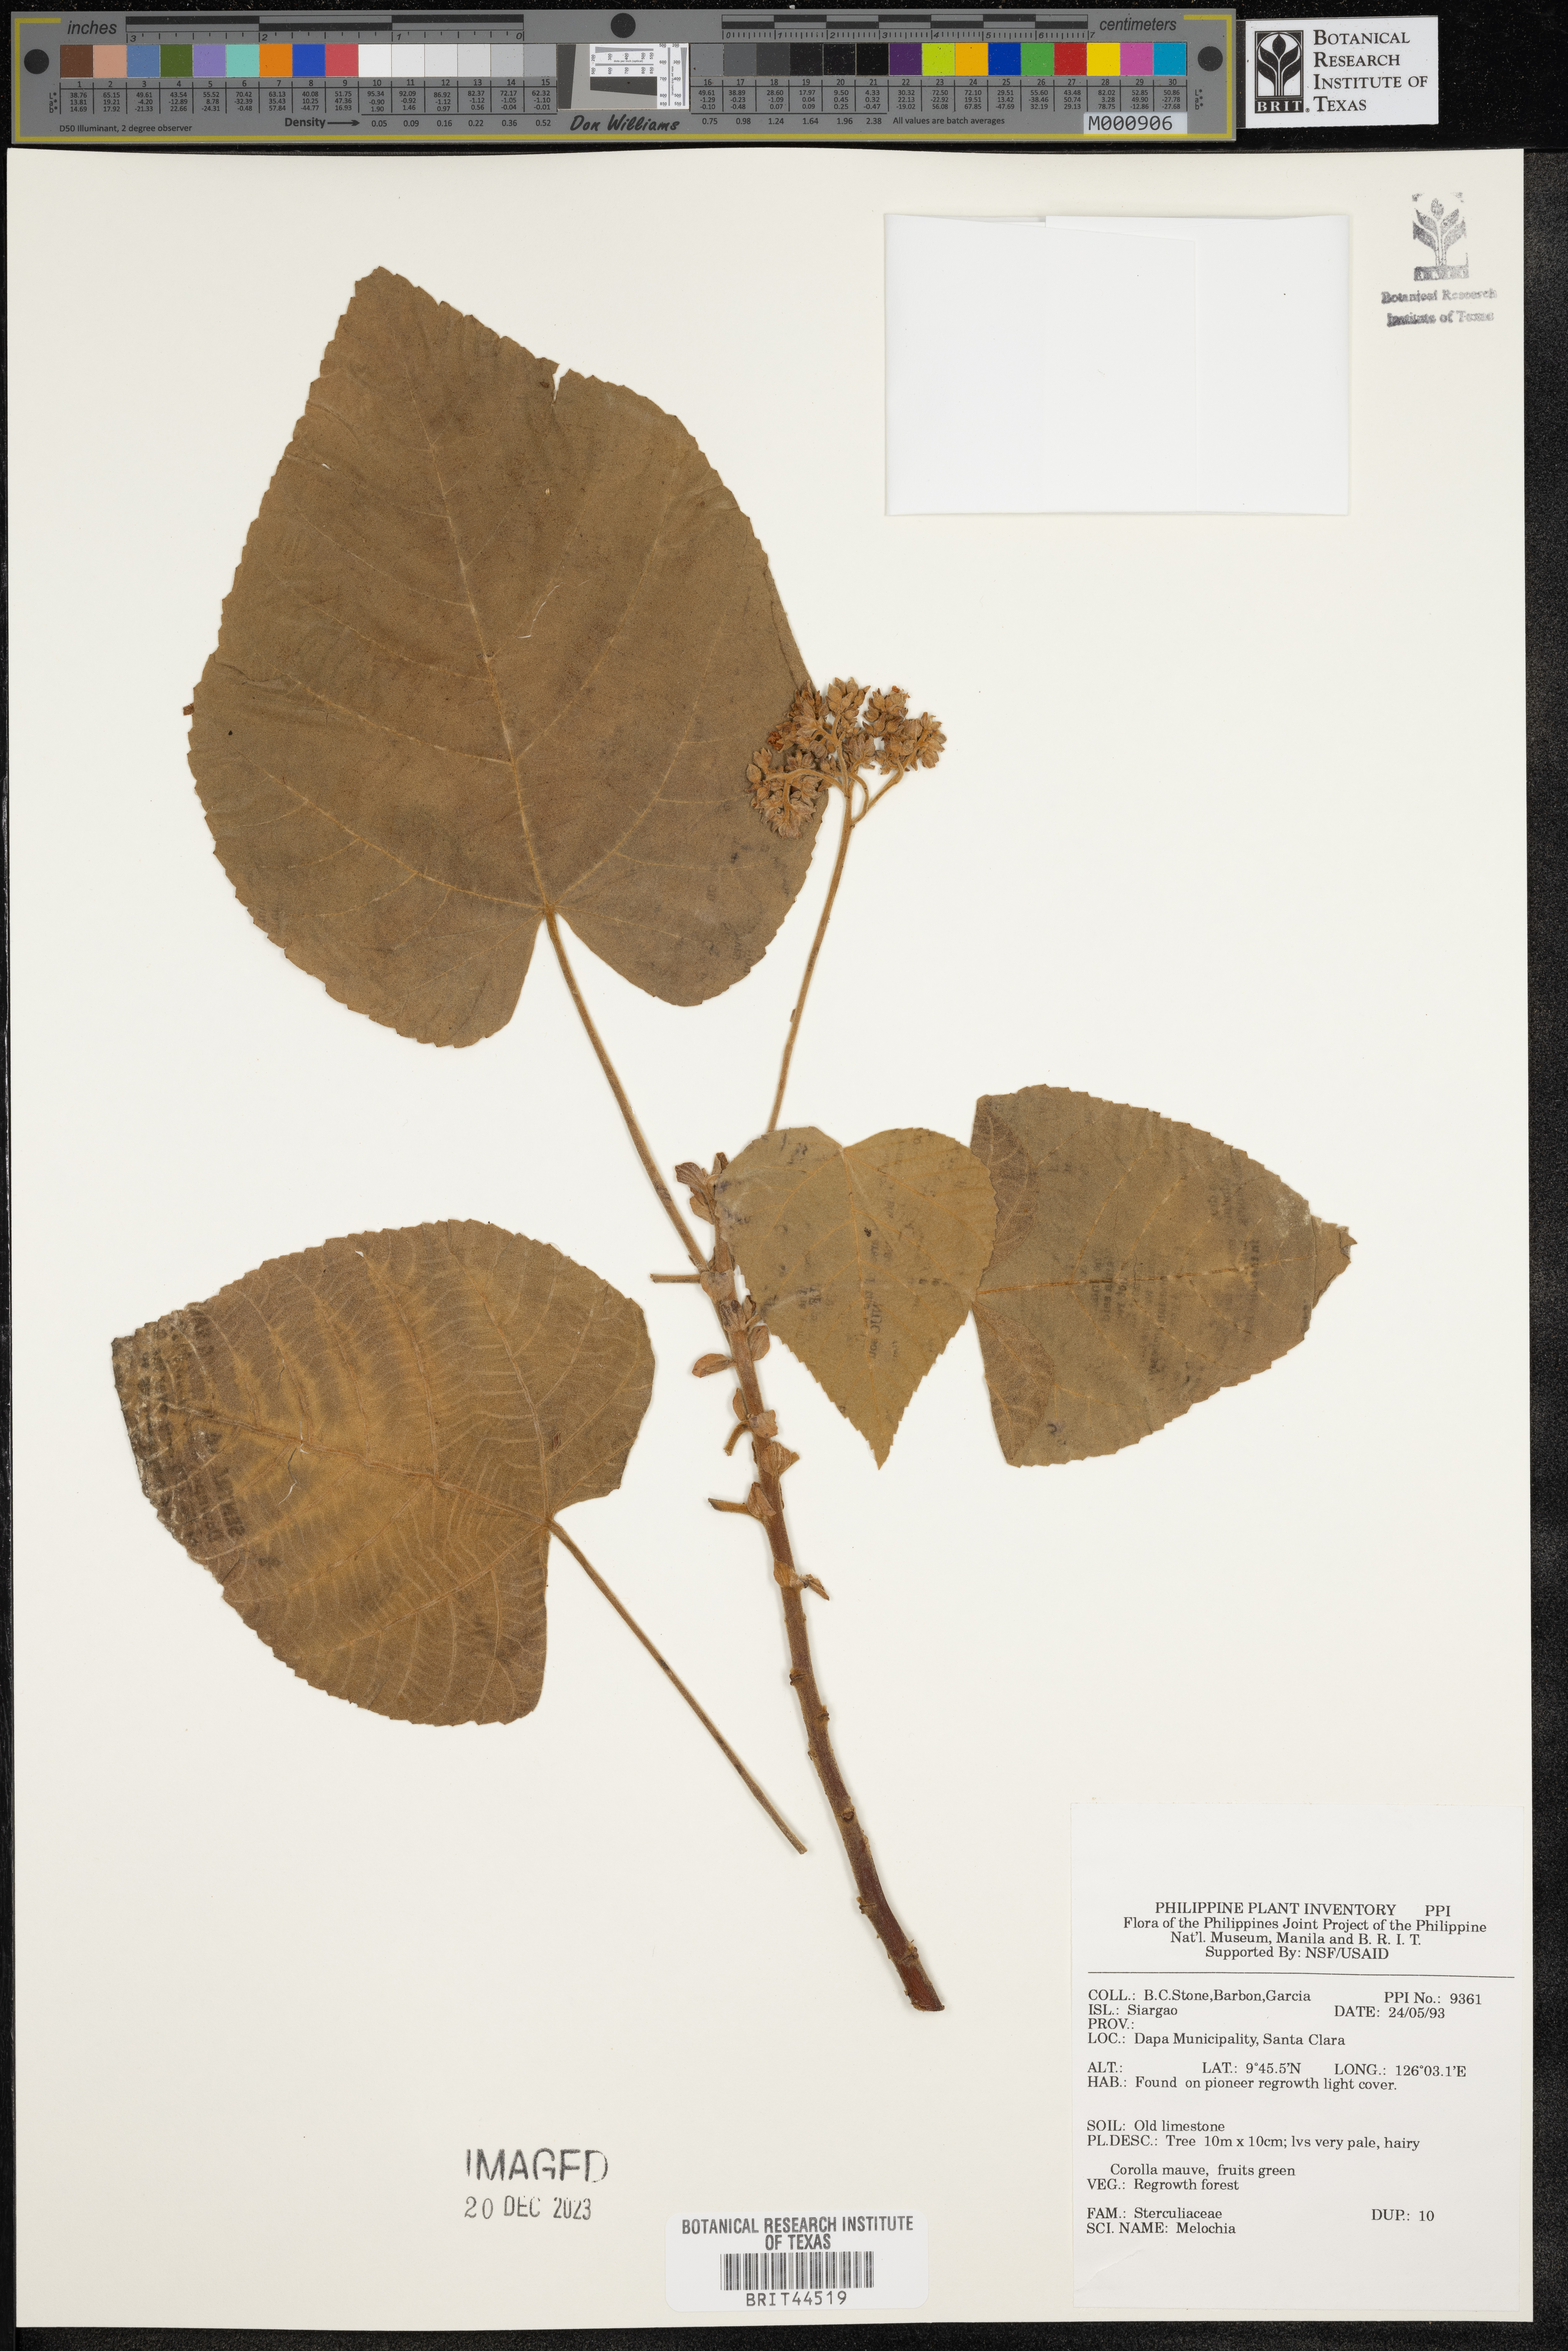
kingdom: Plantae
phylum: Tracheophyta
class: Magnoliopsida
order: Malvales
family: Malvaceae
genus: Melochia
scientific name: Melochia
